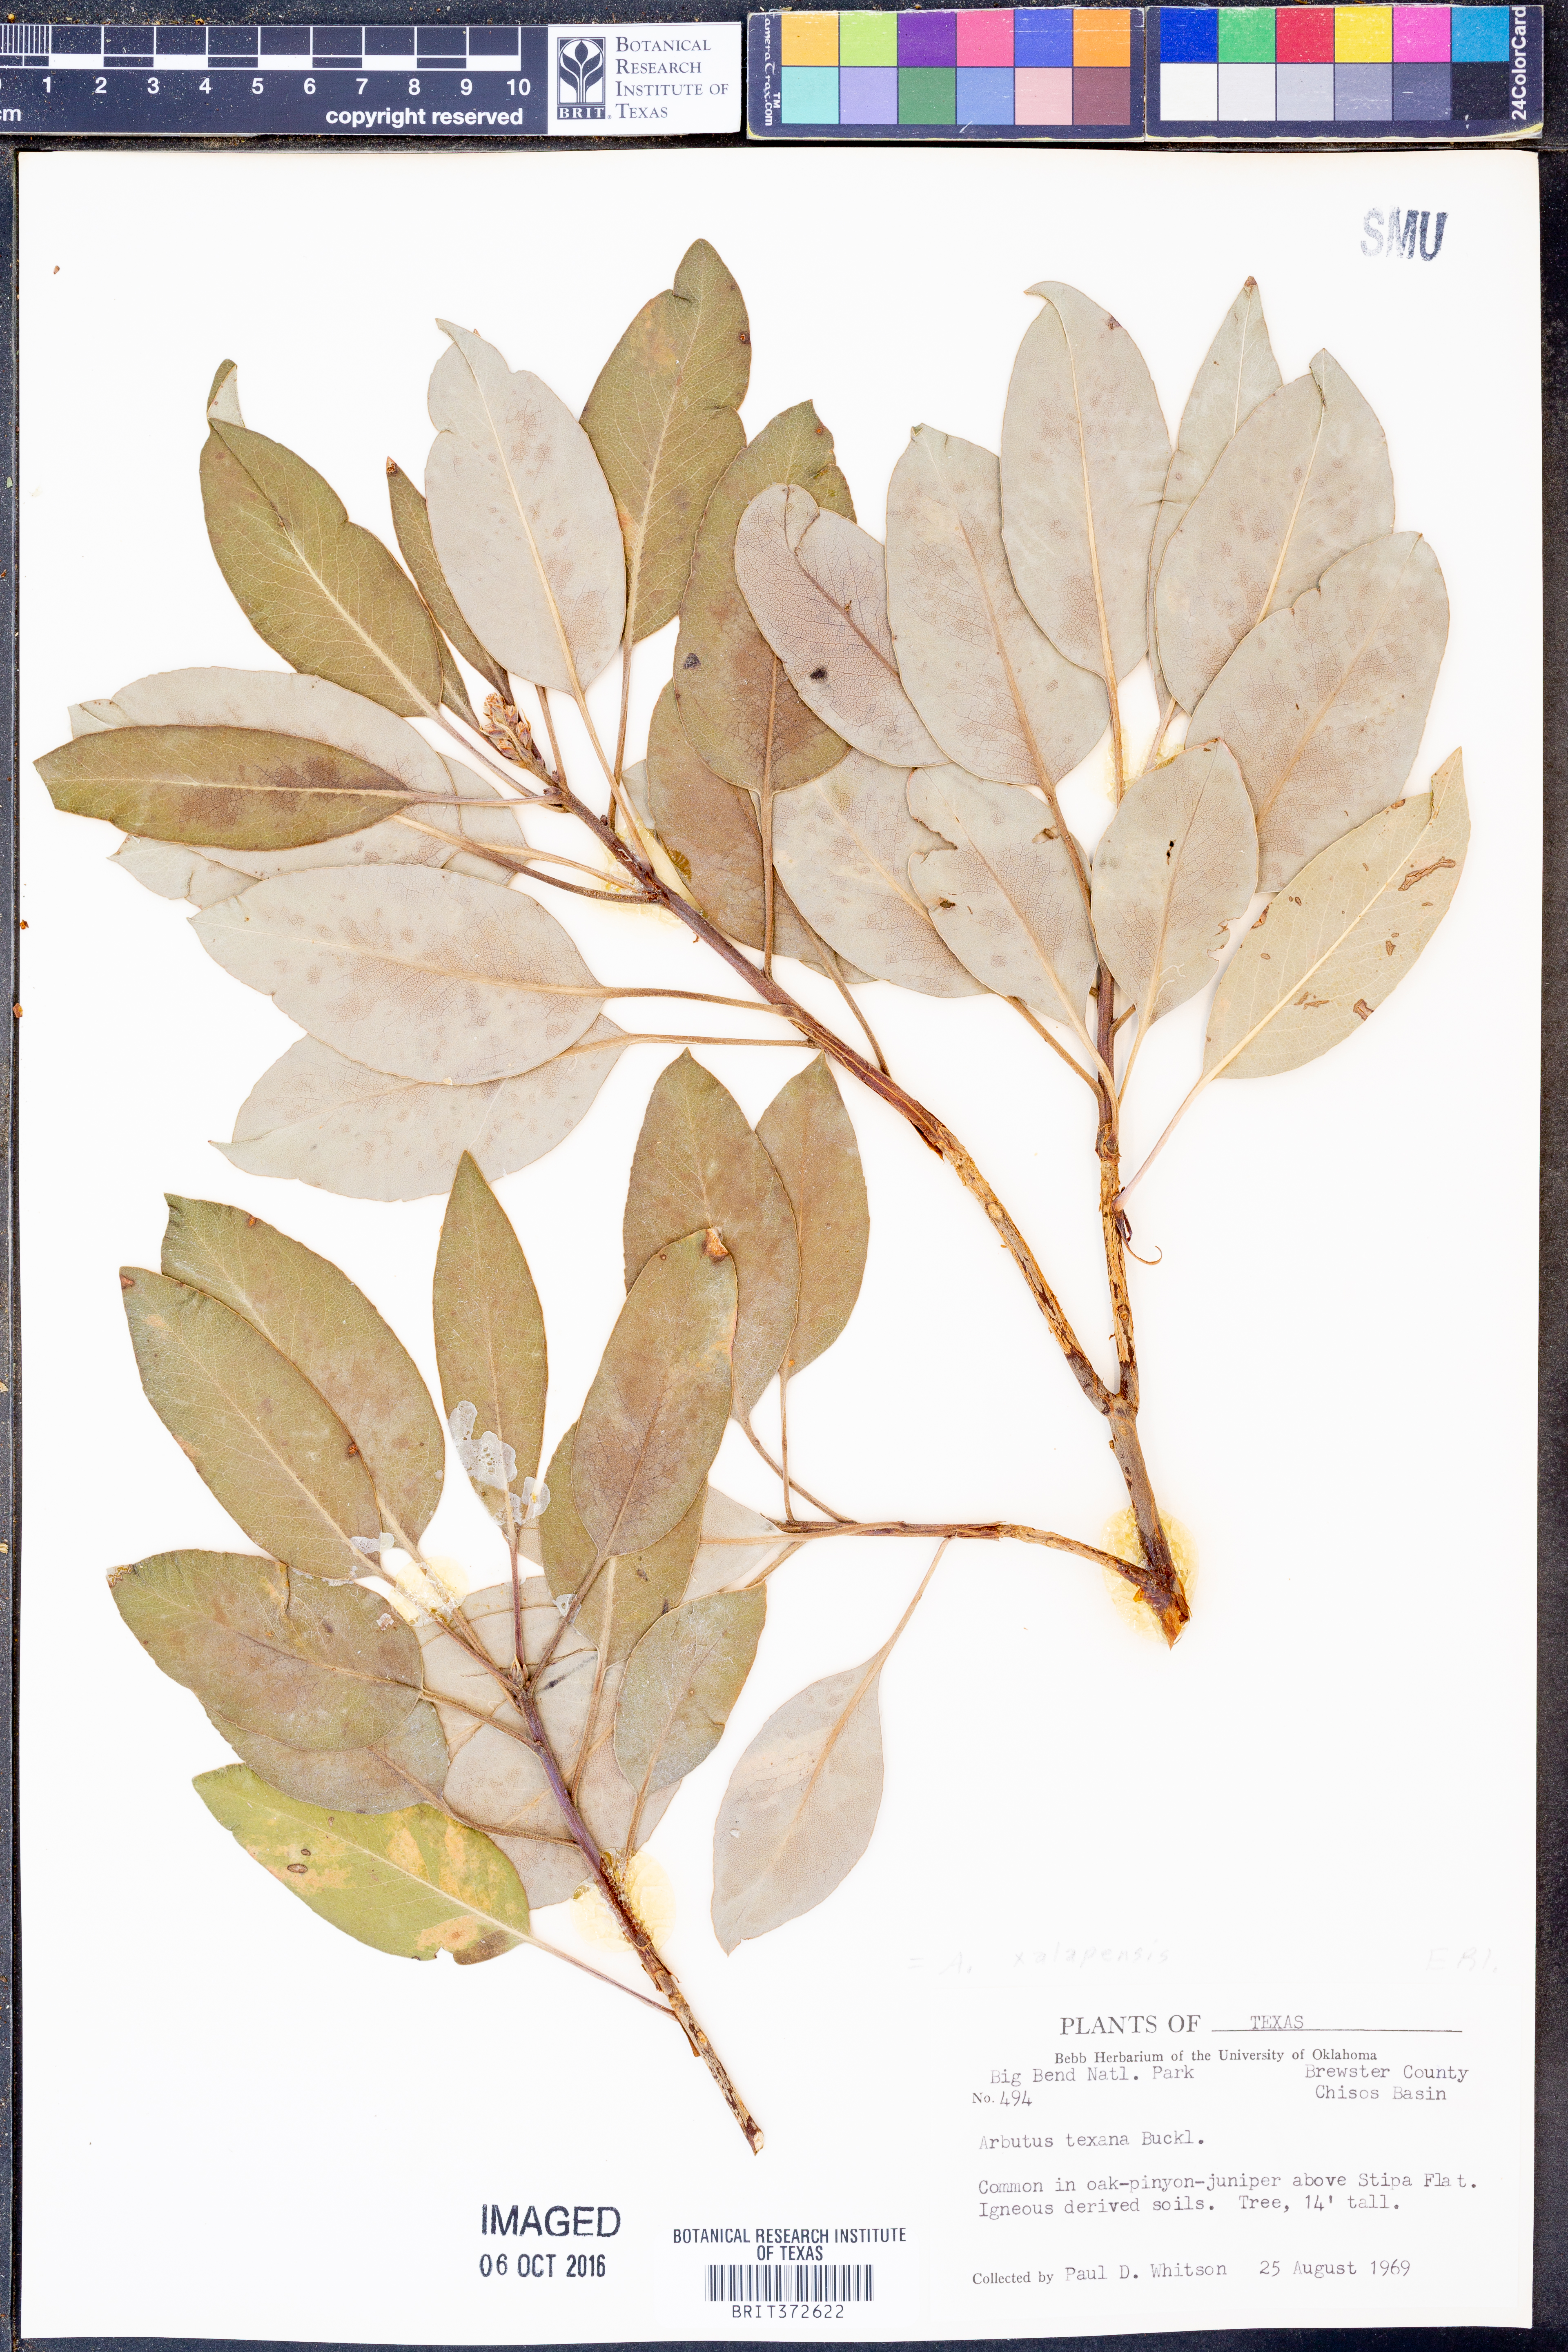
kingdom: Plantae
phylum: Tracheophyta
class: Magnoliopsida
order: Ericales
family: Ericaceae
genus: Arbutus
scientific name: Arbutus xalapensis
